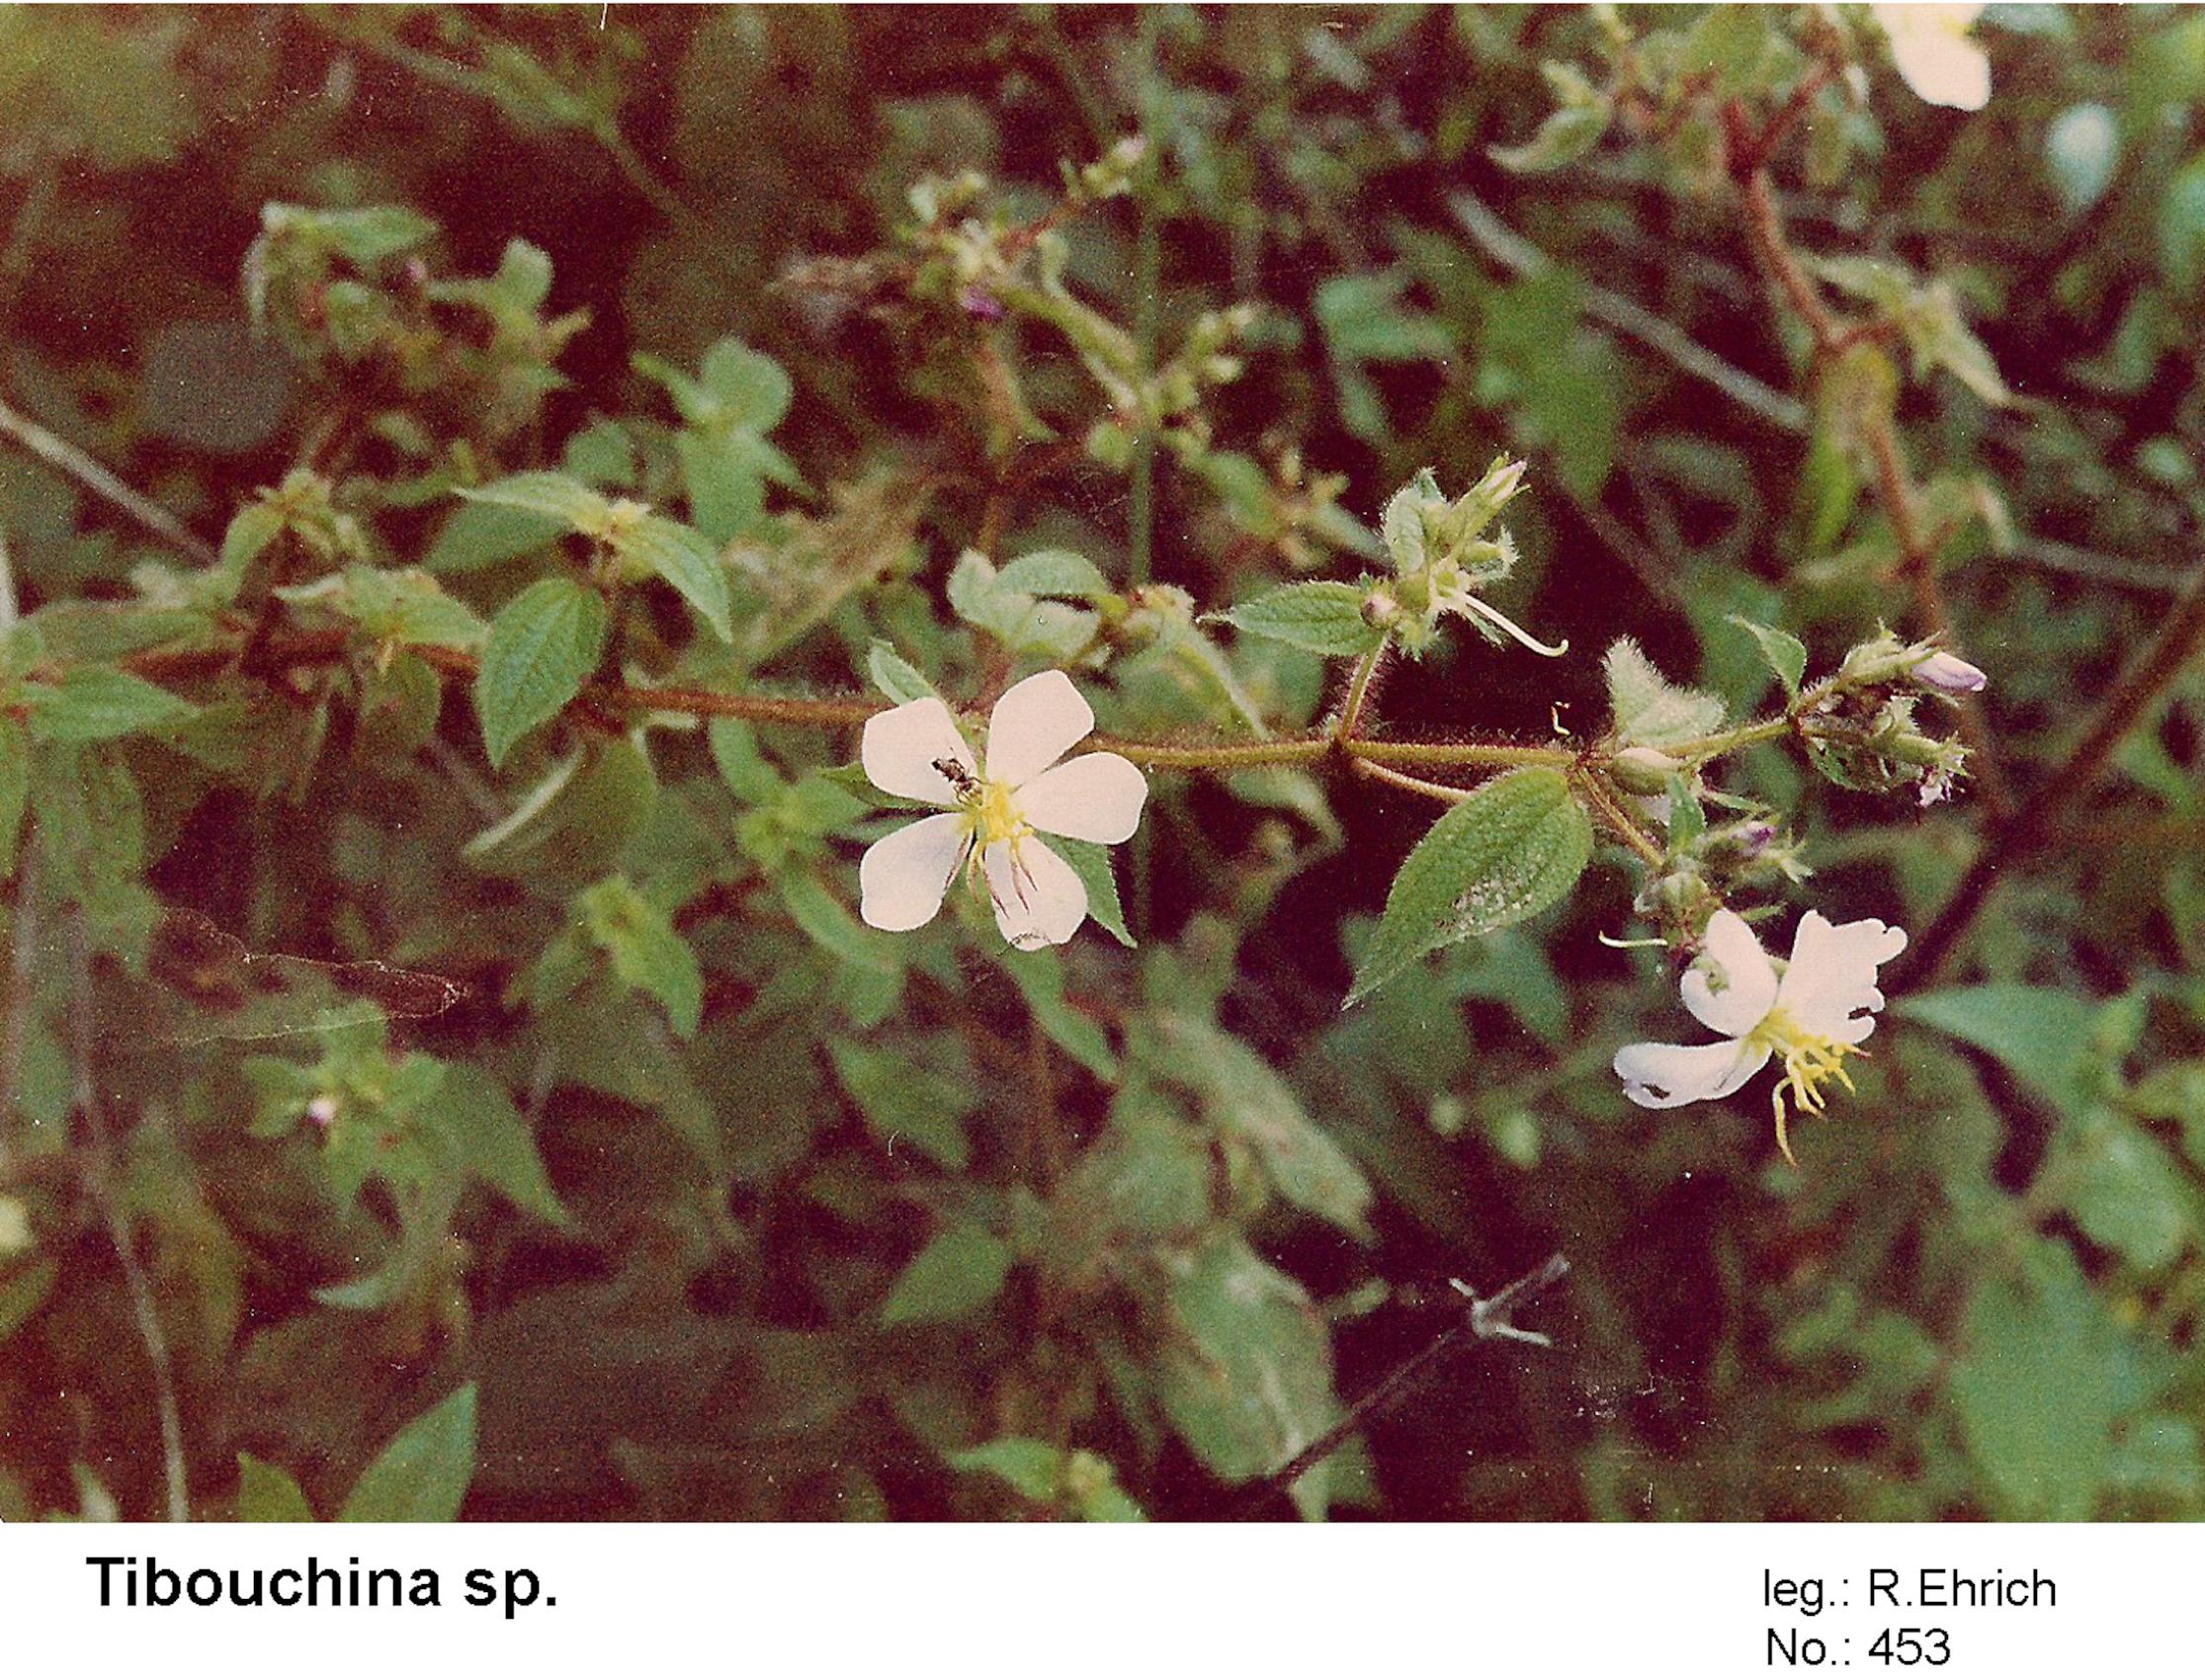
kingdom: Plantae
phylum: Tracheophyta
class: Magnoliopsida
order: Myrtales
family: Melastomataceae
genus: Tibouchina
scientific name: Tibouchina
